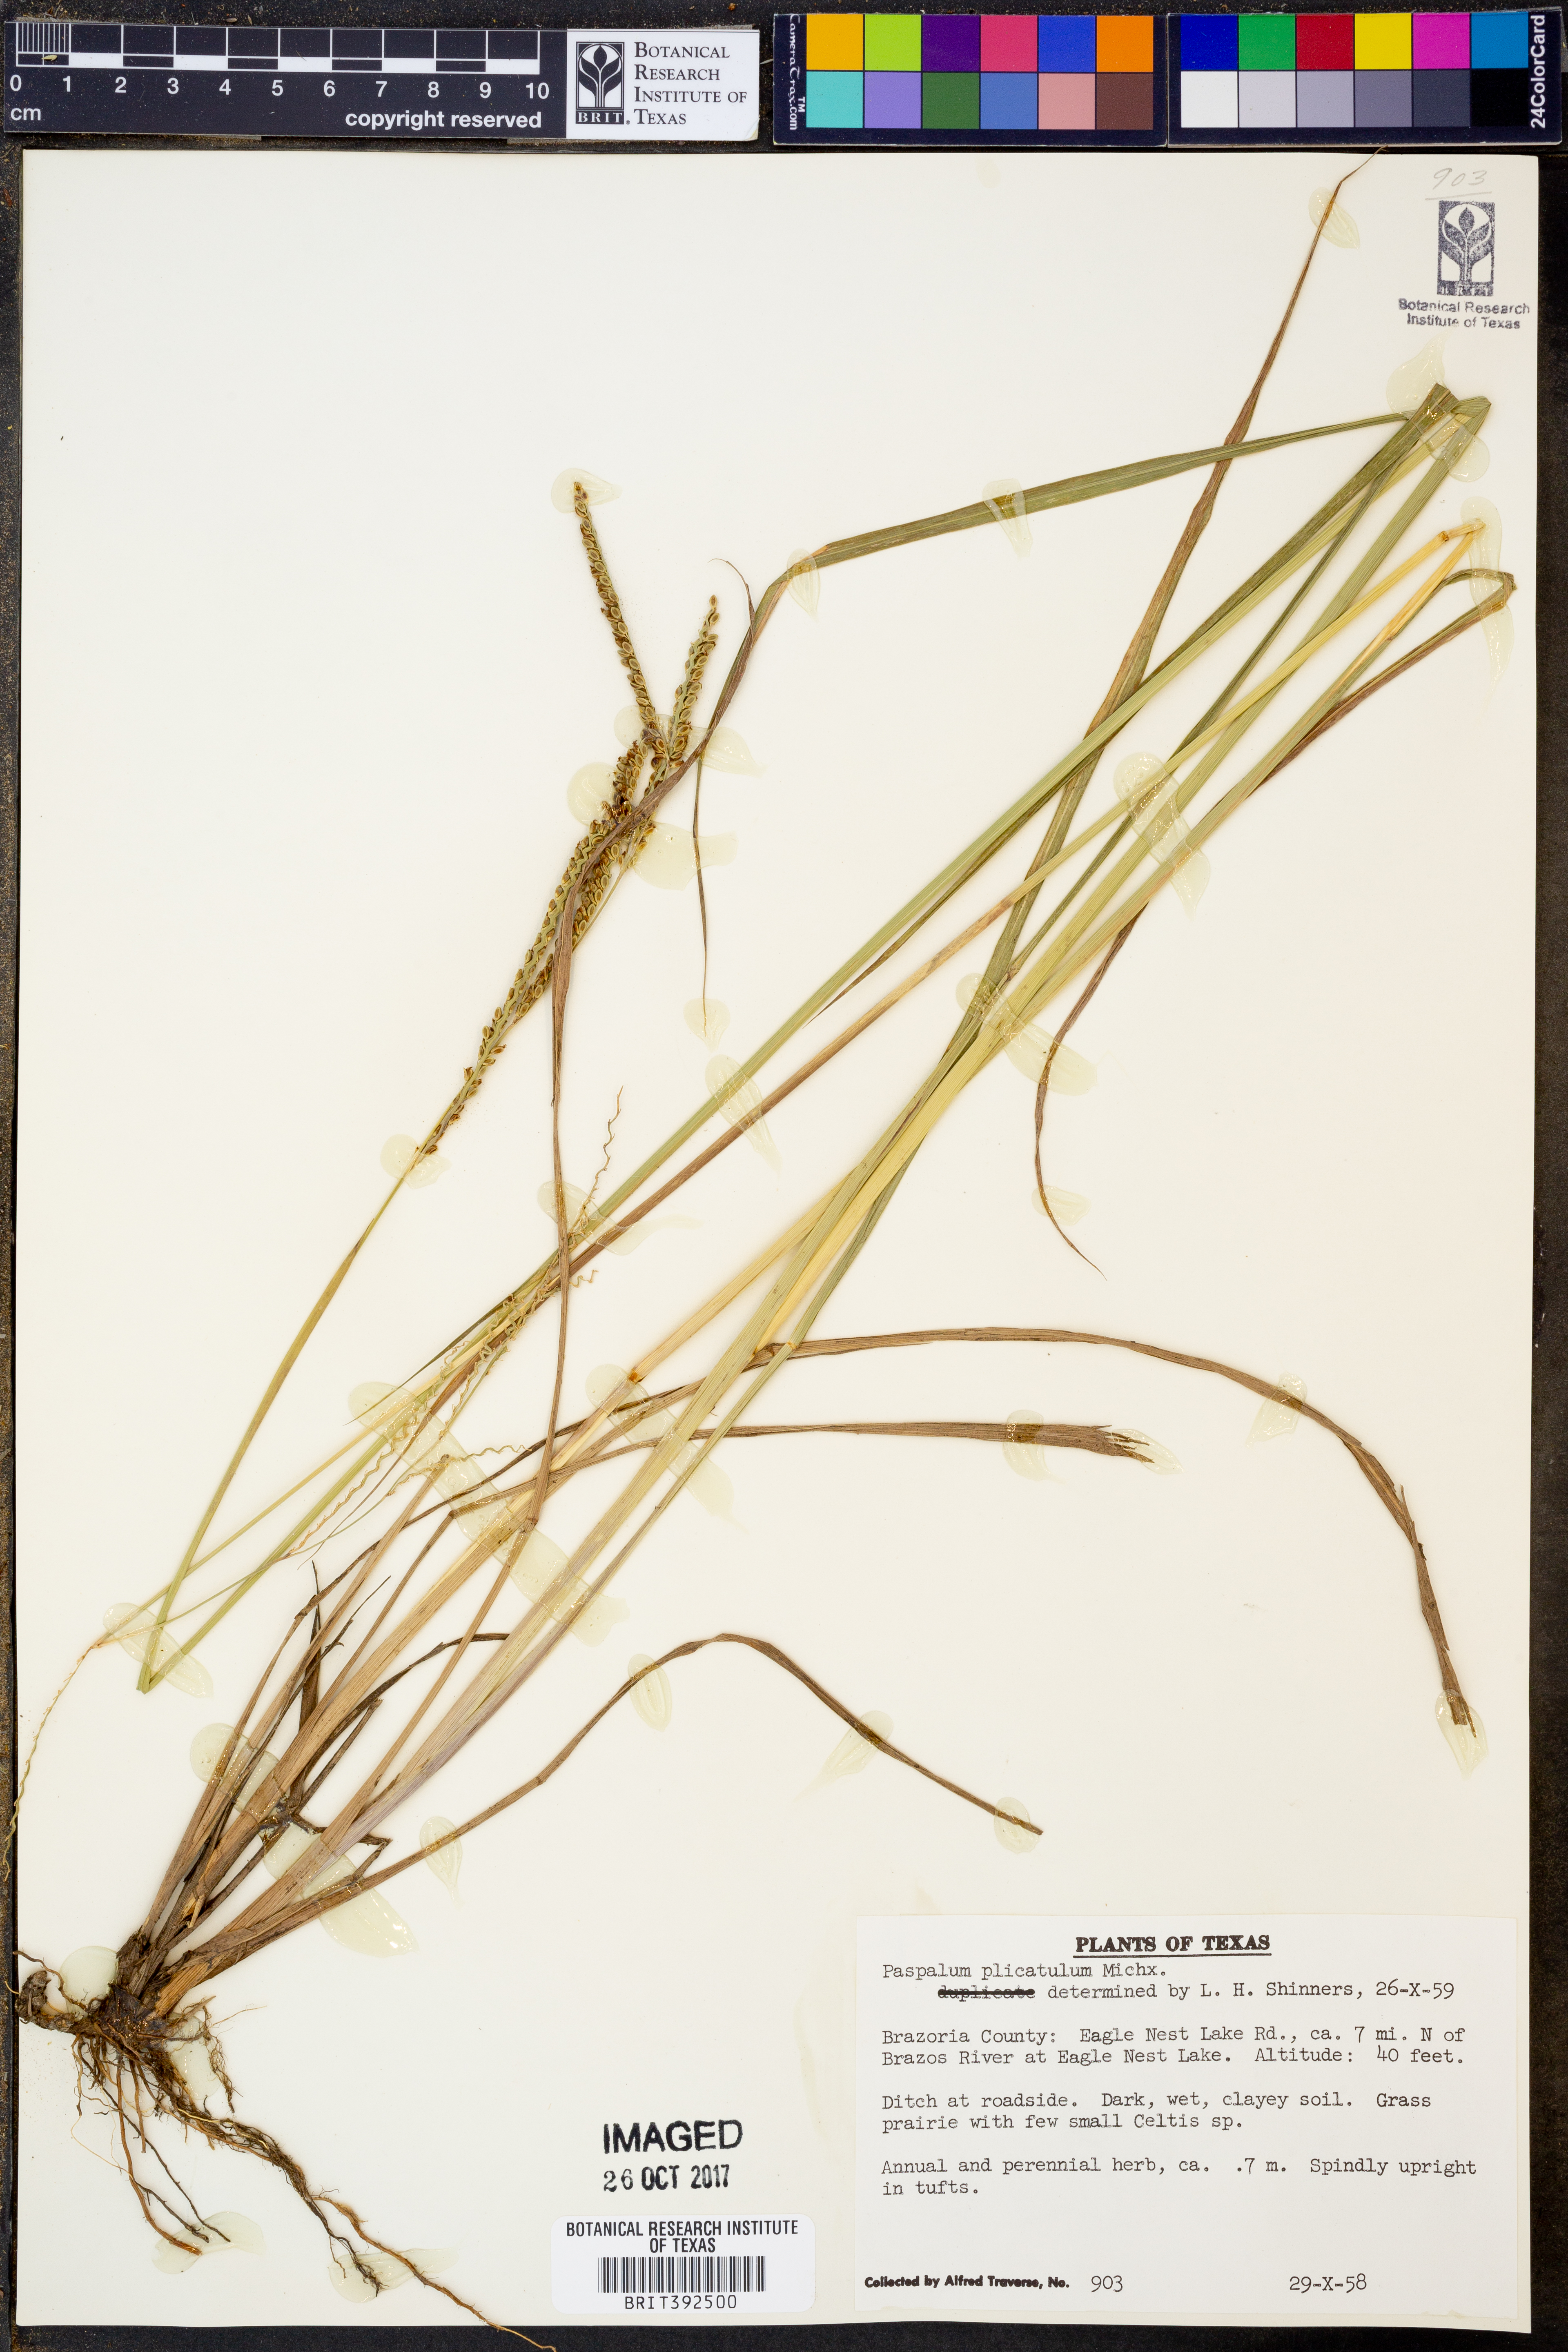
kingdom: Plantae
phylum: Tracheophyta
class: Liliopsida
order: Poales
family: Poaceae
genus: Paspalum
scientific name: Paspalum plicatulum
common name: Top paspalum
